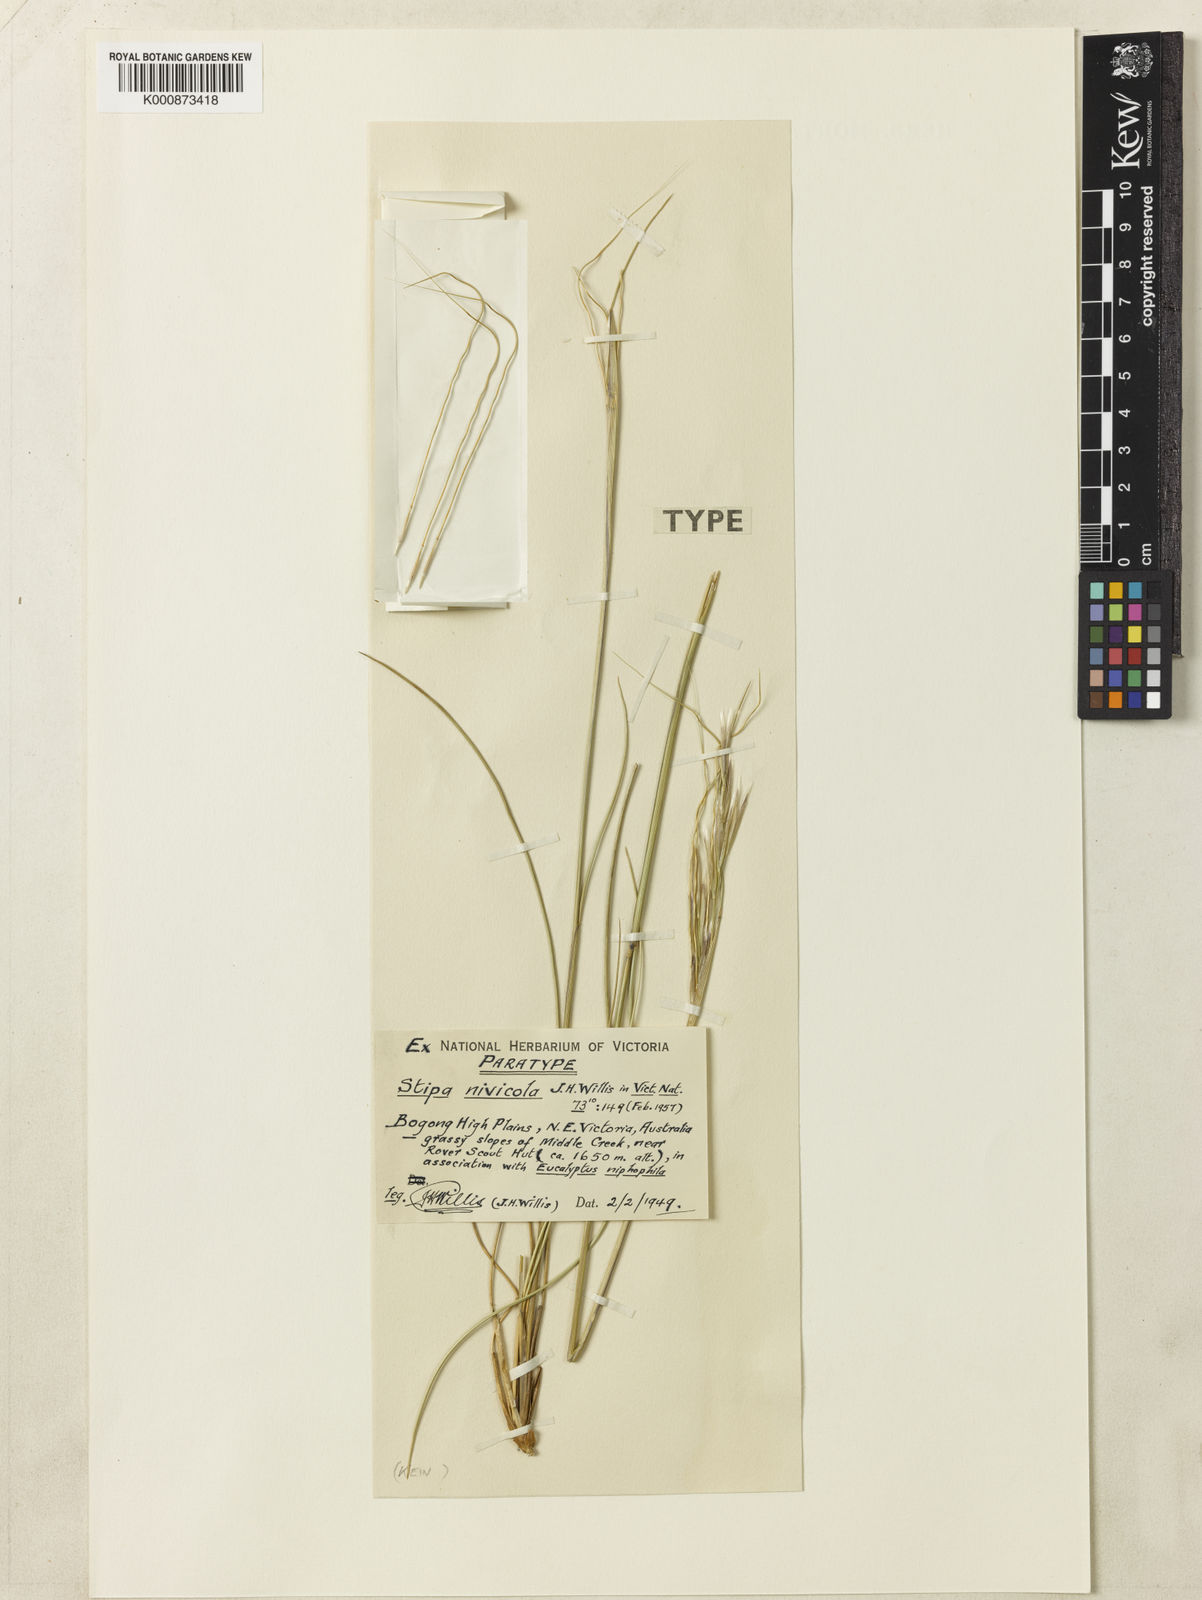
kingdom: Plantae
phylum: Tracheophyta
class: Liliopsida
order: Poales
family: Poaceae
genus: Austrostipa
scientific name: Austrostipa nivicola
